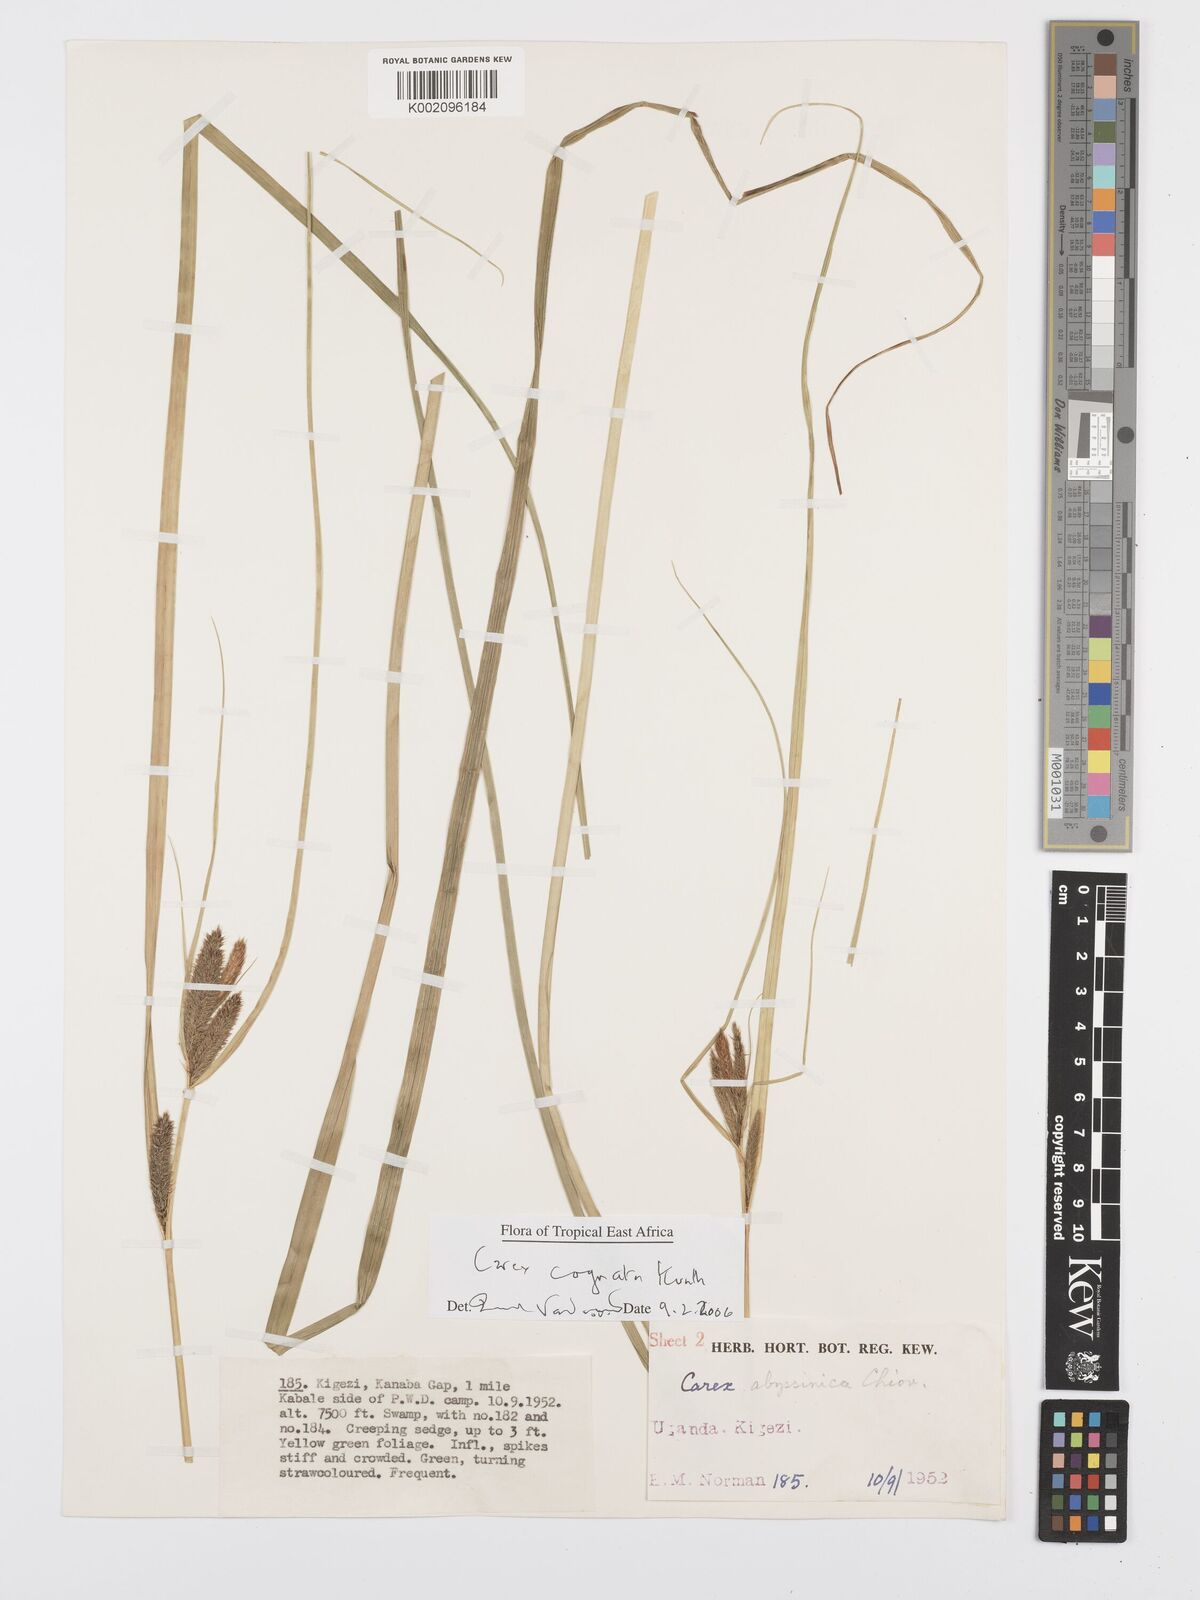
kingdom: Plantae
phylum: Tracheophyta
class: Liliopsida
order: Poales
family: Cyperaceae
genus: Carex
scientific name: Carex congolensis
